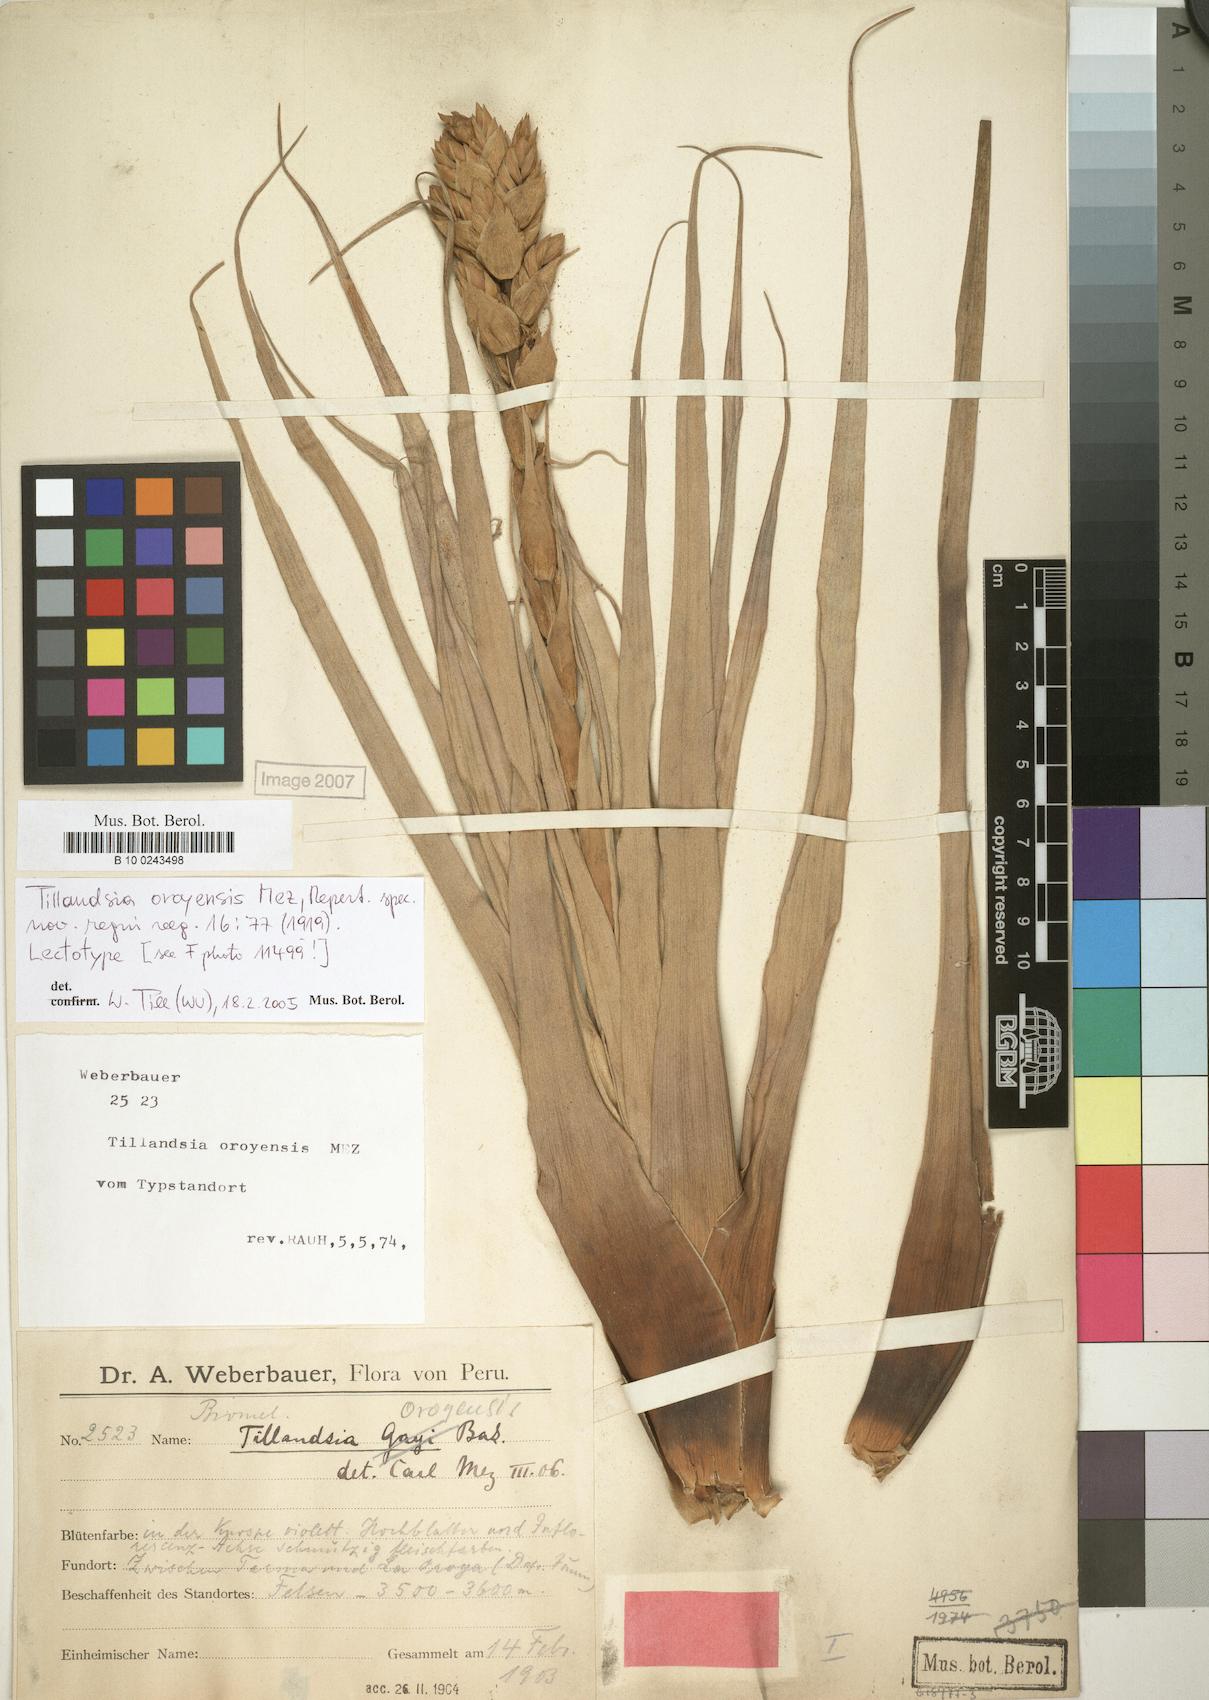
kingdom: Plantae
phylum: Tracheophyta
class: Liliopsida
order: Poales
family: Bromeliaceae
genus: Tillandsia
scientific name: Tillandsia oroyensis
